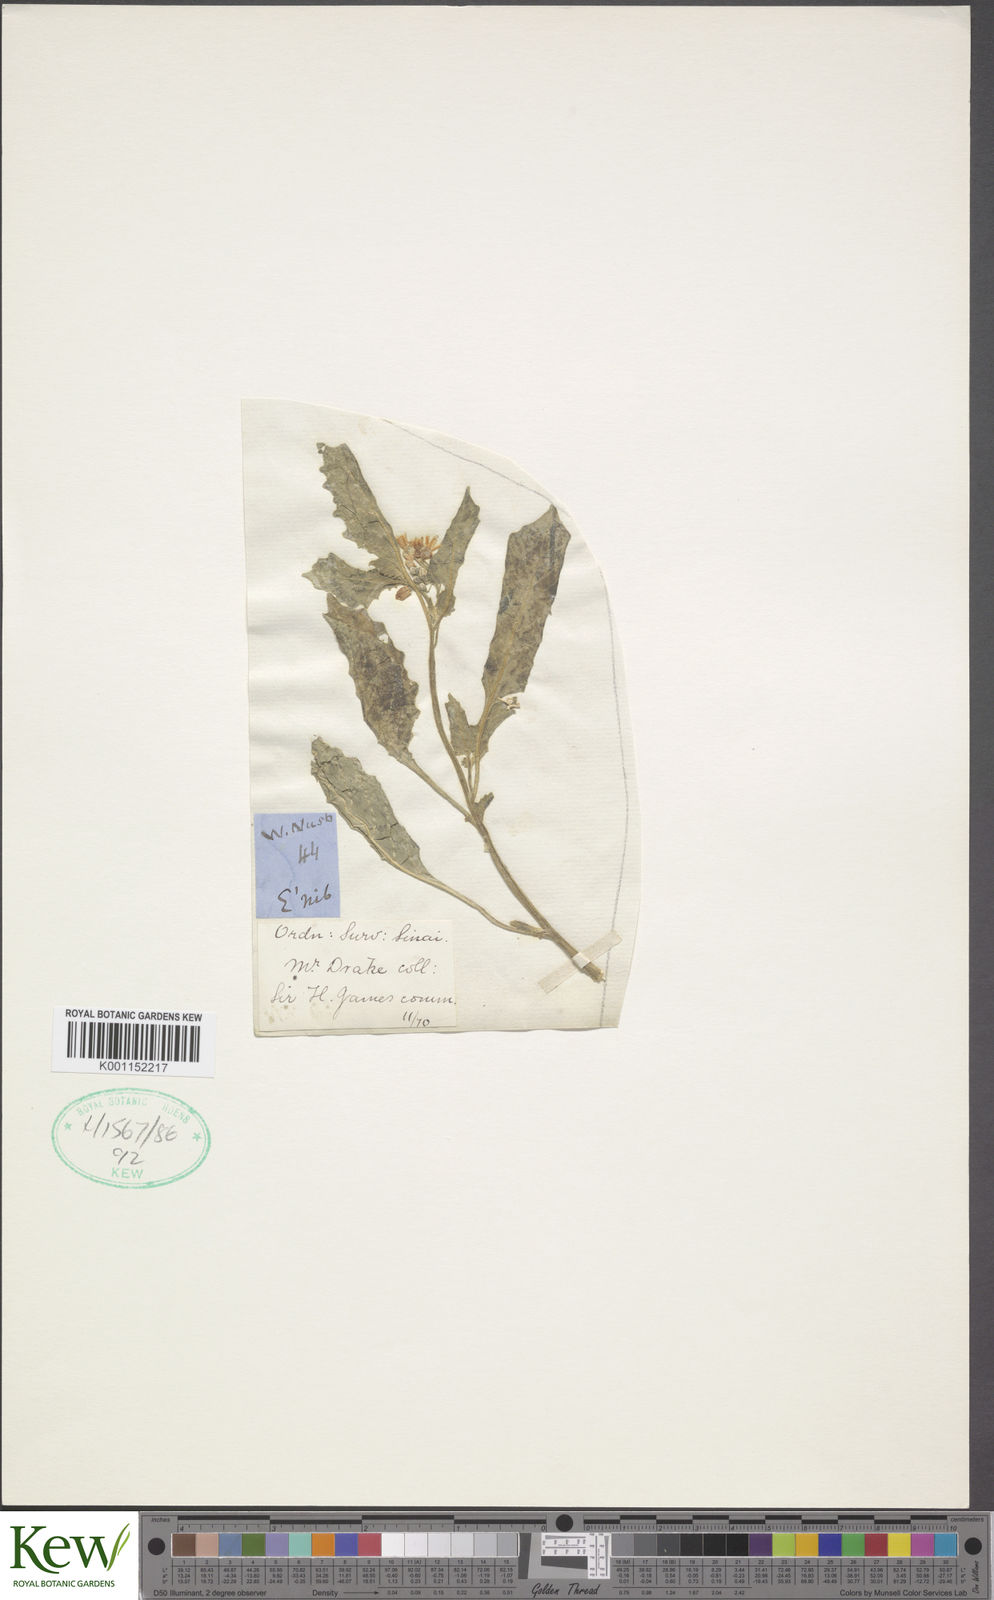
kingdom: Plantae
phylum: Tracheophyta
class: Magnoliopsida
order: Solanales
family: Solanaceae
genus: Solanum
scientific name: Solanum villosum
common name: Red nightshade
